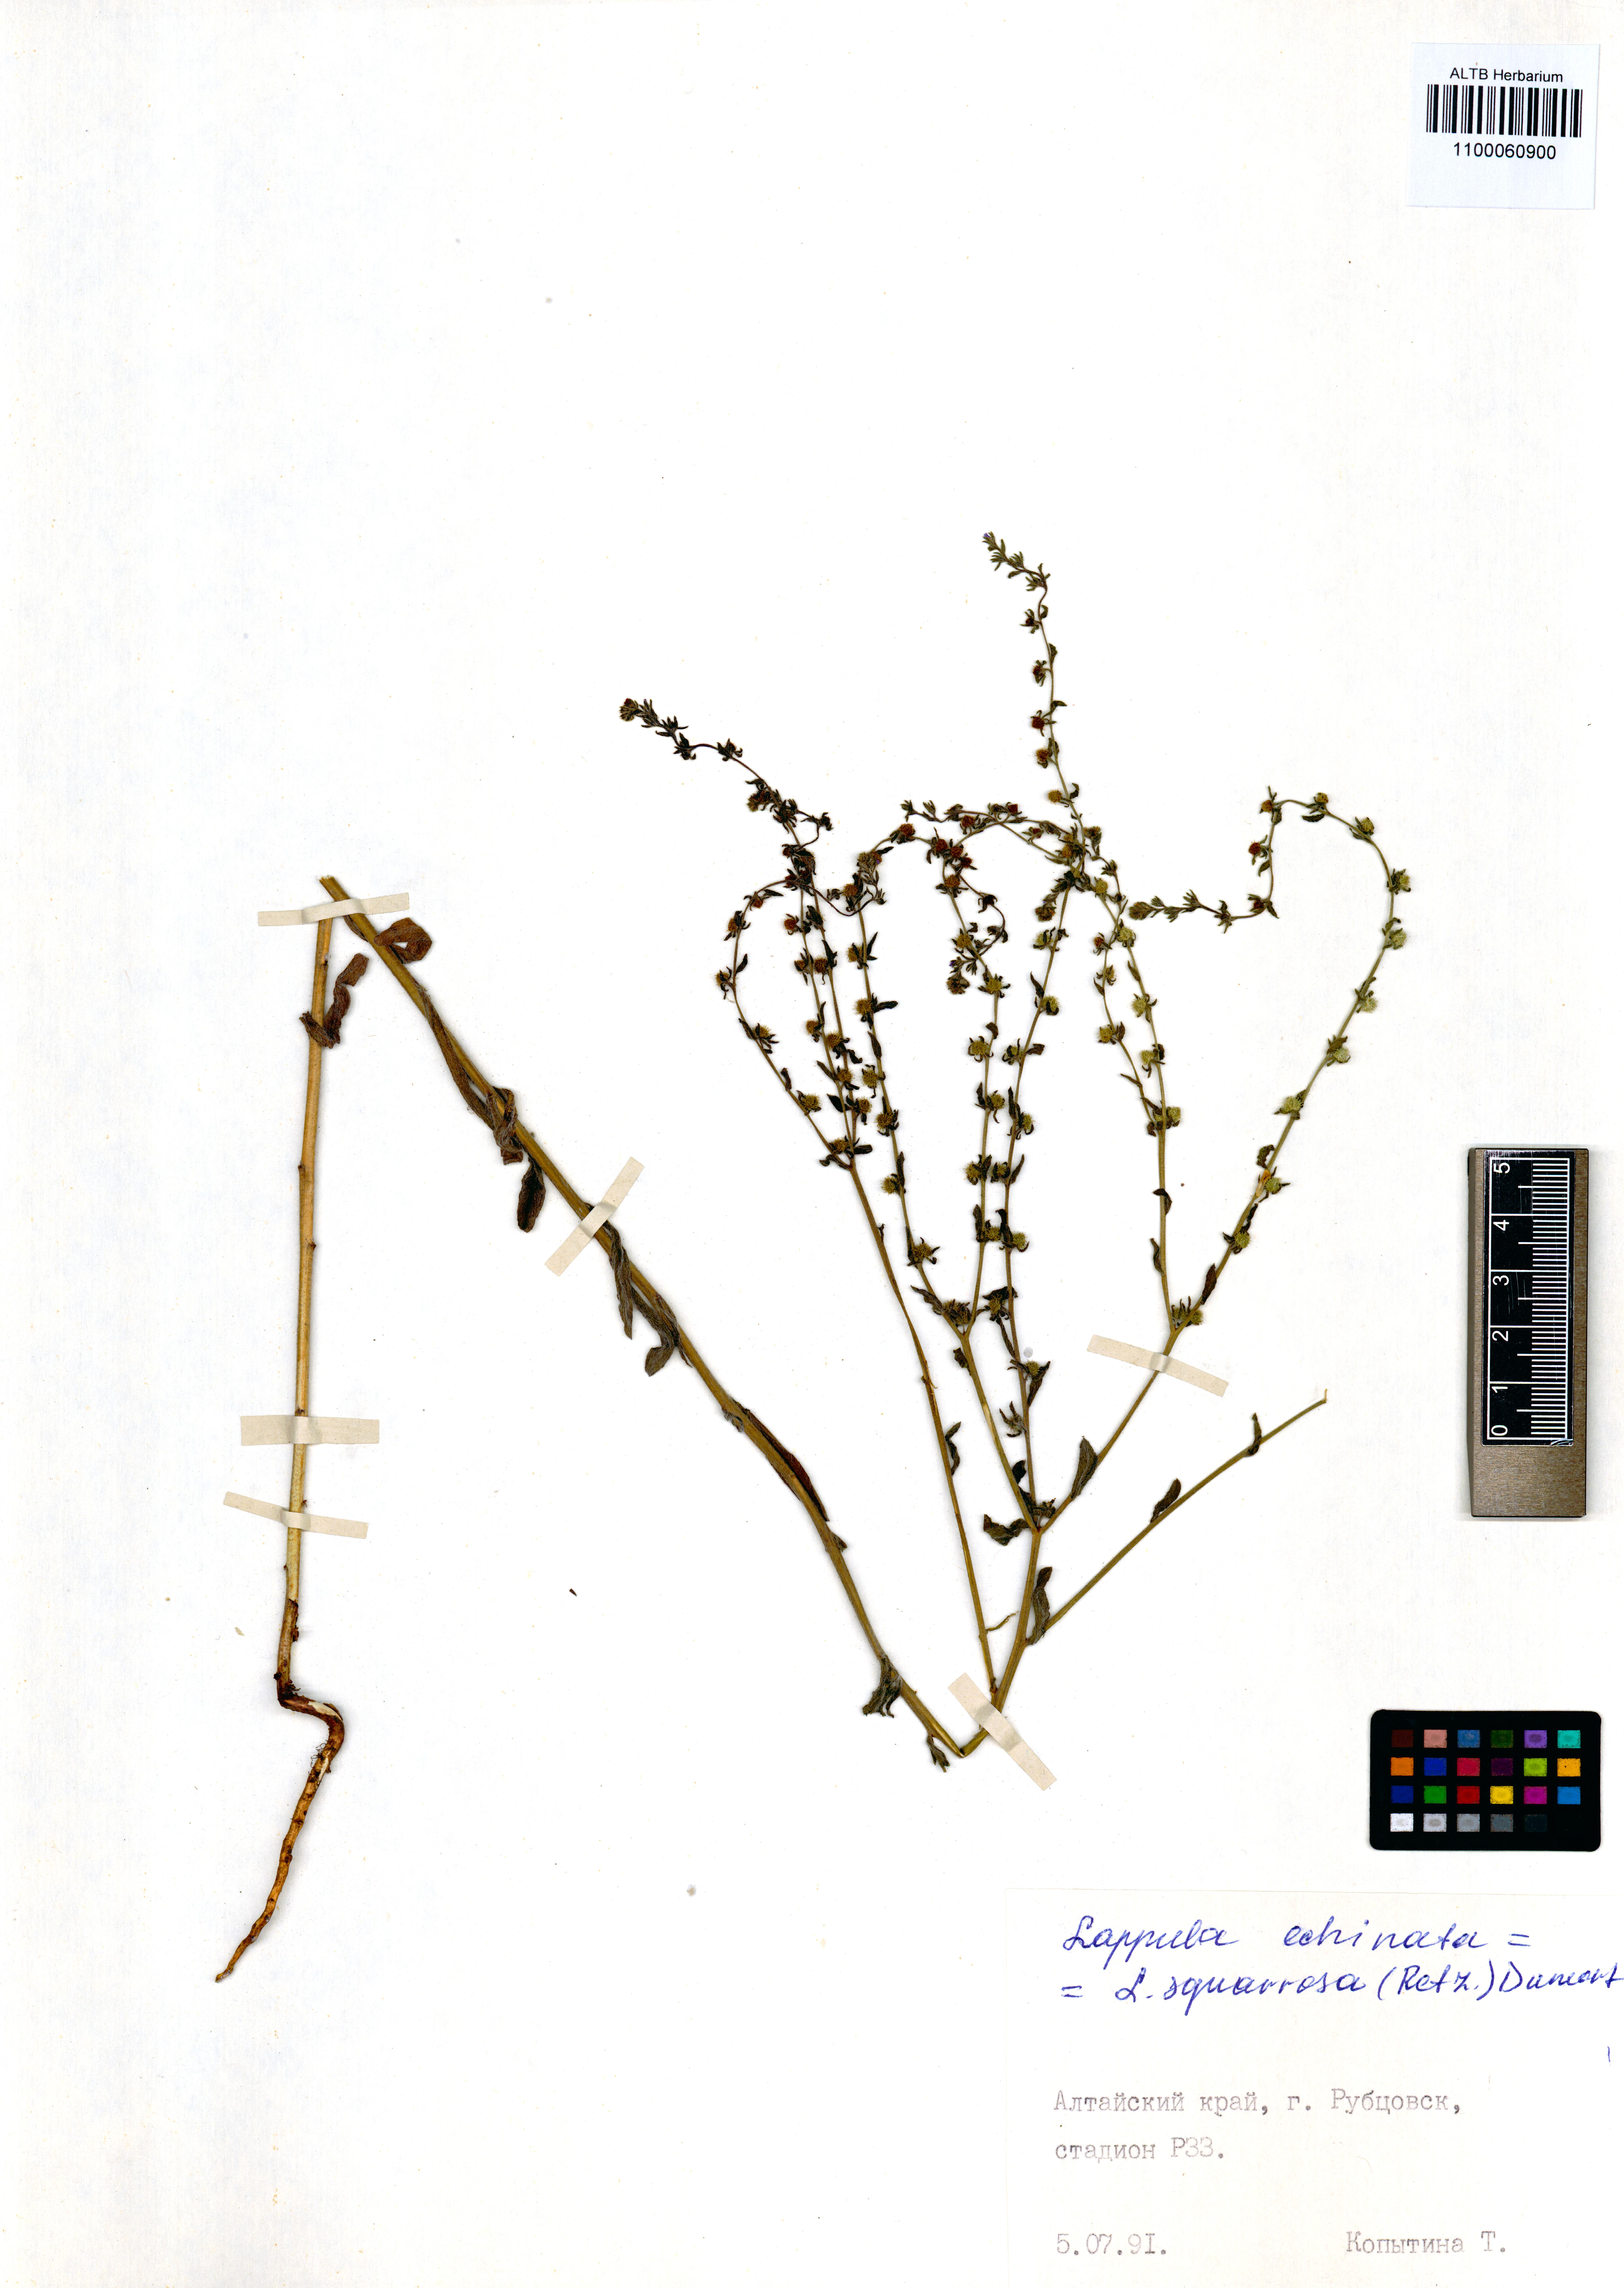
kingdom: Plantae
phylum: Tracheophyta
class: Magnoliopsida
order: Boraginales
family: Boraginaceae
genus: Lappula
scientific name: Lappula squarrosa
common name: European stickseed
